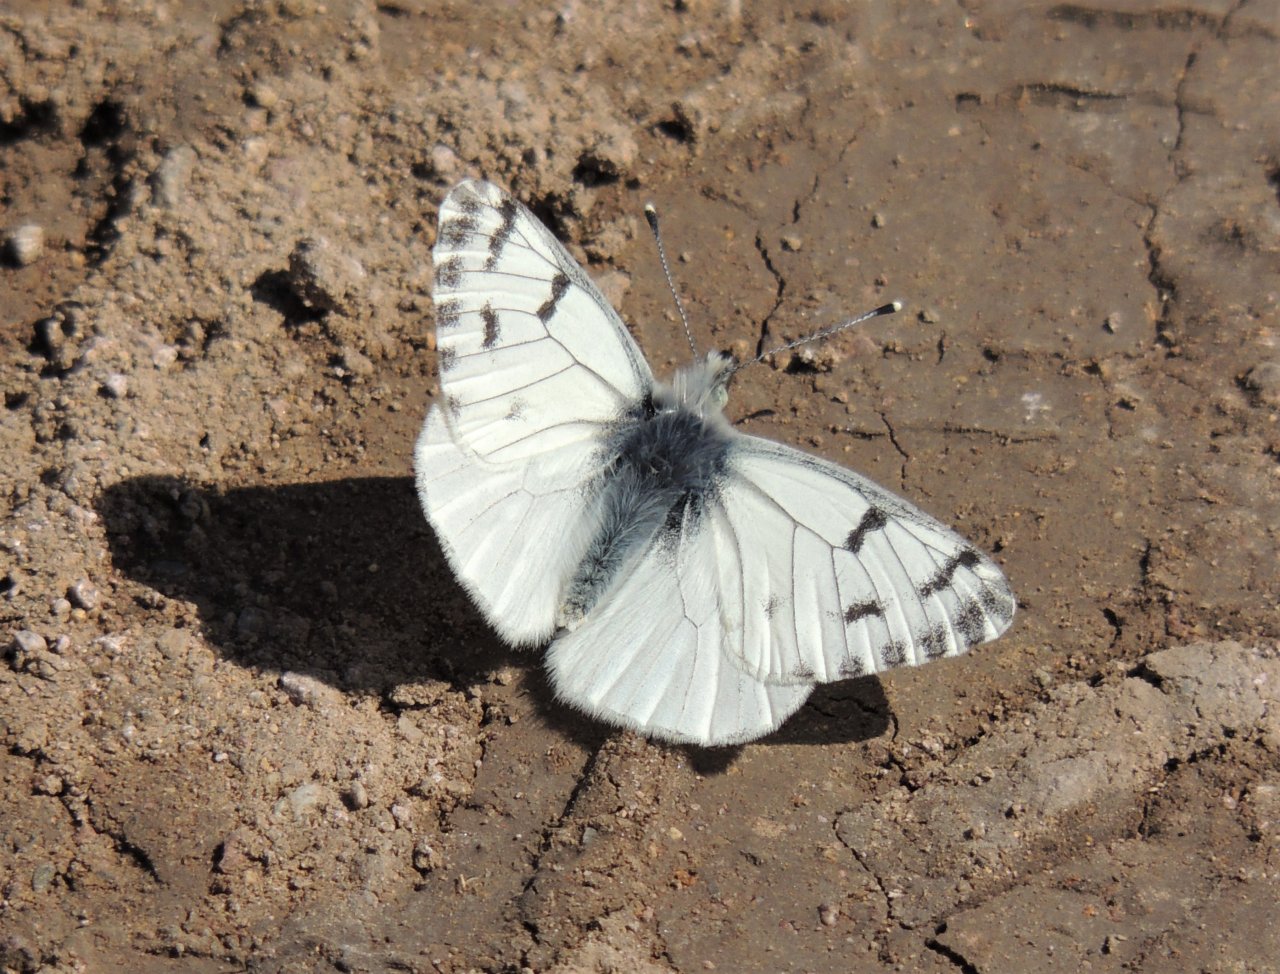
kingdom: Animalia
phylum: Arthropoda
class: Insecta
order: Lepidoptera
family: Pieridae
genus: Pontia
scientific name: Pontia sisymbrii
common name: Spring White
